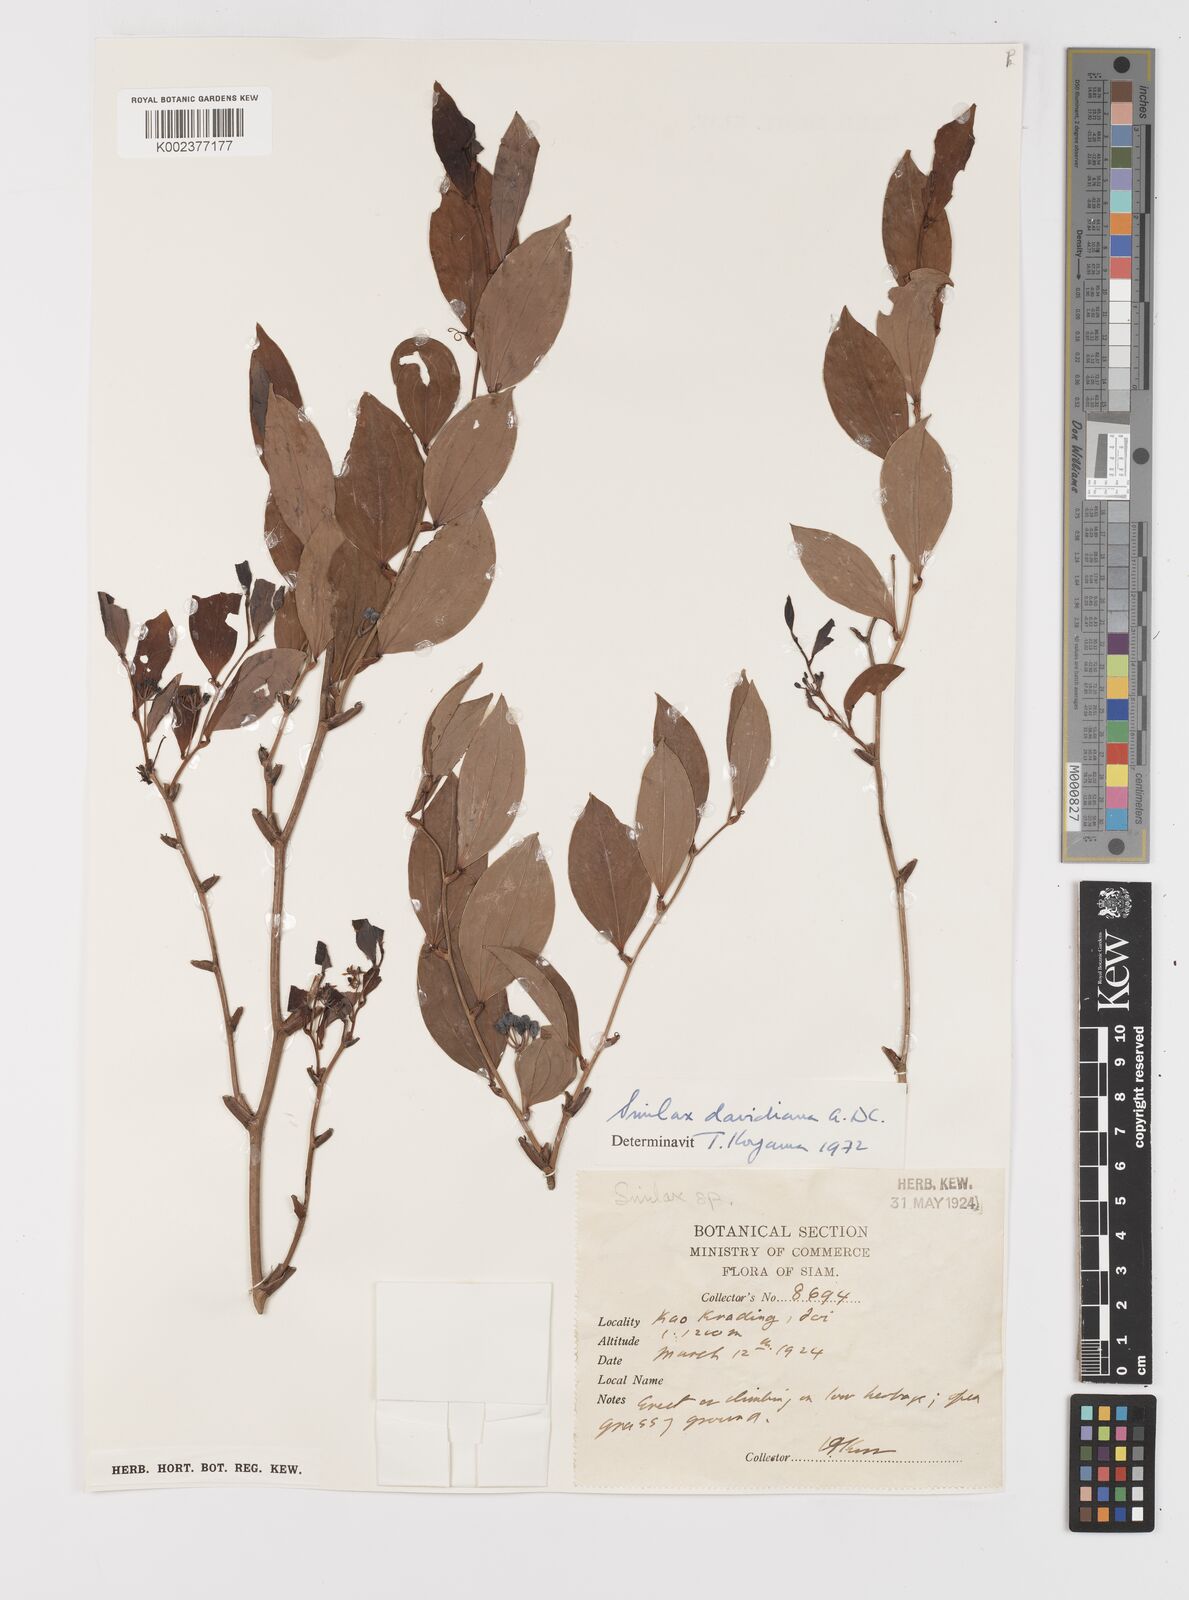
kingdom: Plantae
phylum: Tracheophyta
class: Liliopsida
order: Liliales
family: Smilacaceae
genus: Smilax
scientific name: Smilax davidiana
